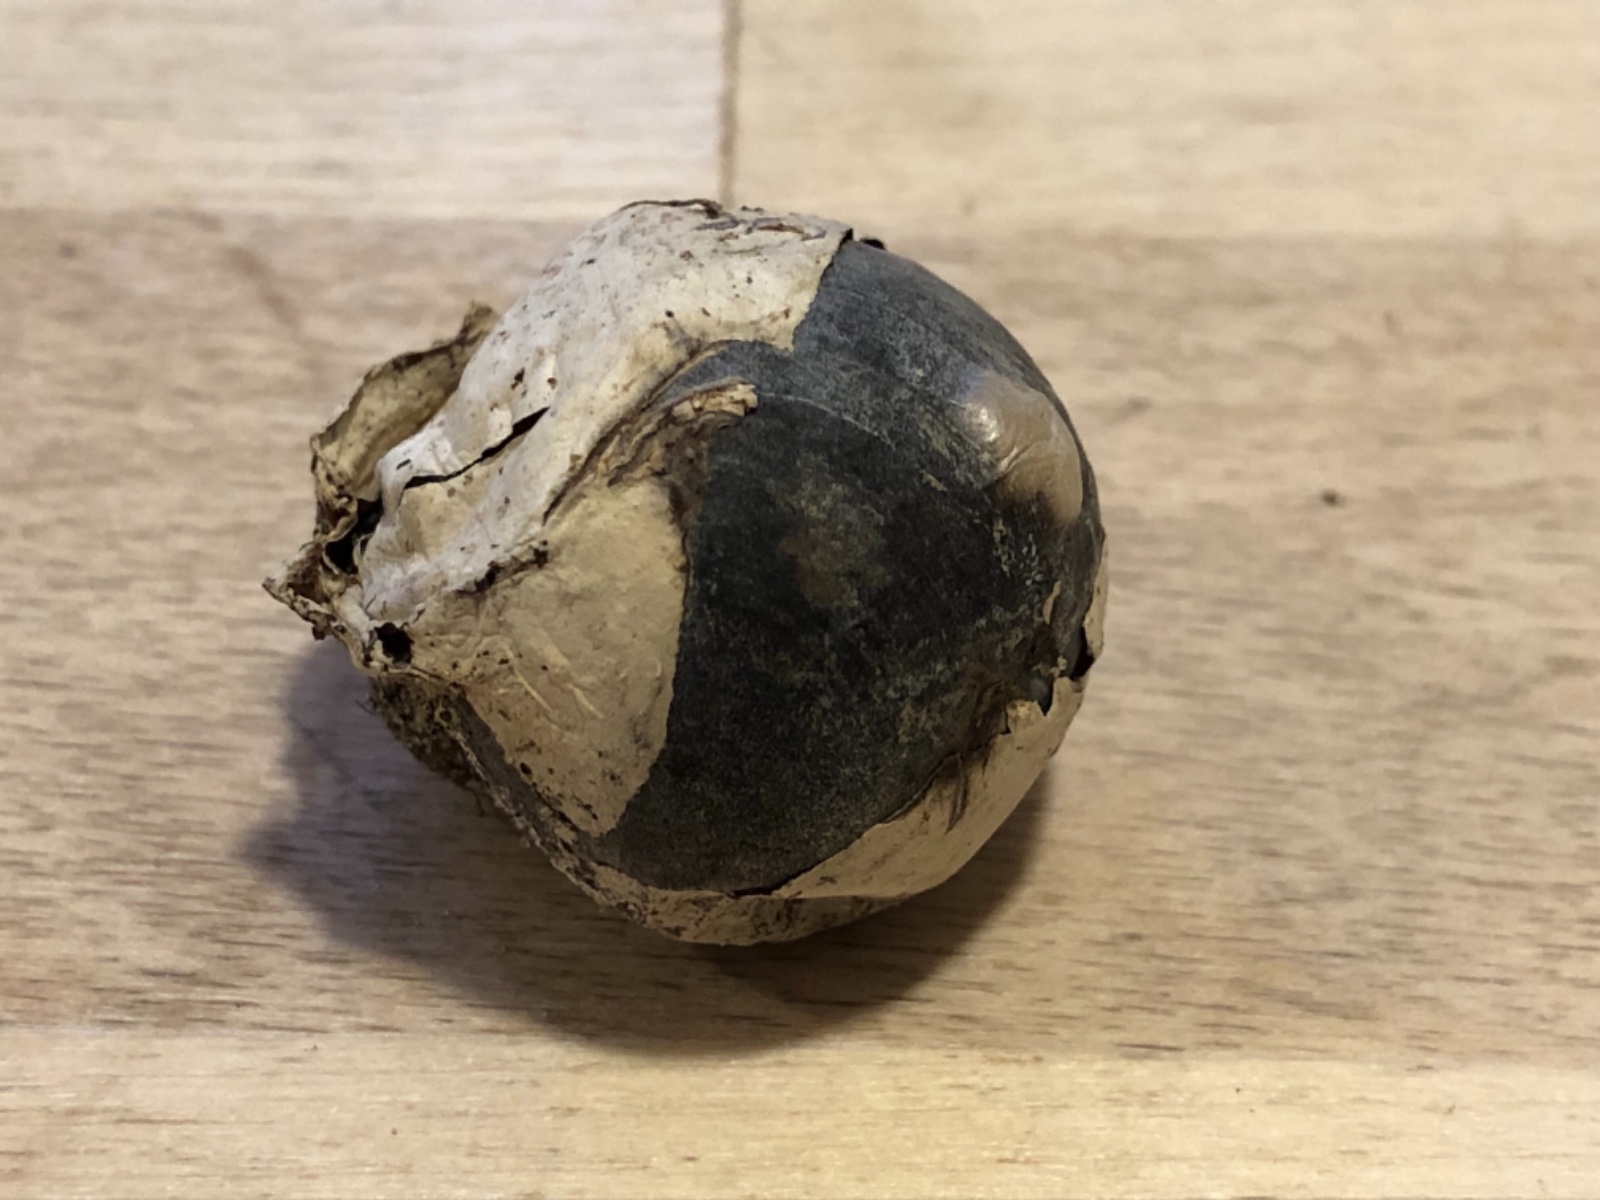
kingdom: Fungi
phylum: Basidiomycota
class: Agaricomycetes
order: Agaricales
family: Lycoperdaceae
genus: Bovista
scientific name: Bovista plumbea
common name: blygrå bovist
